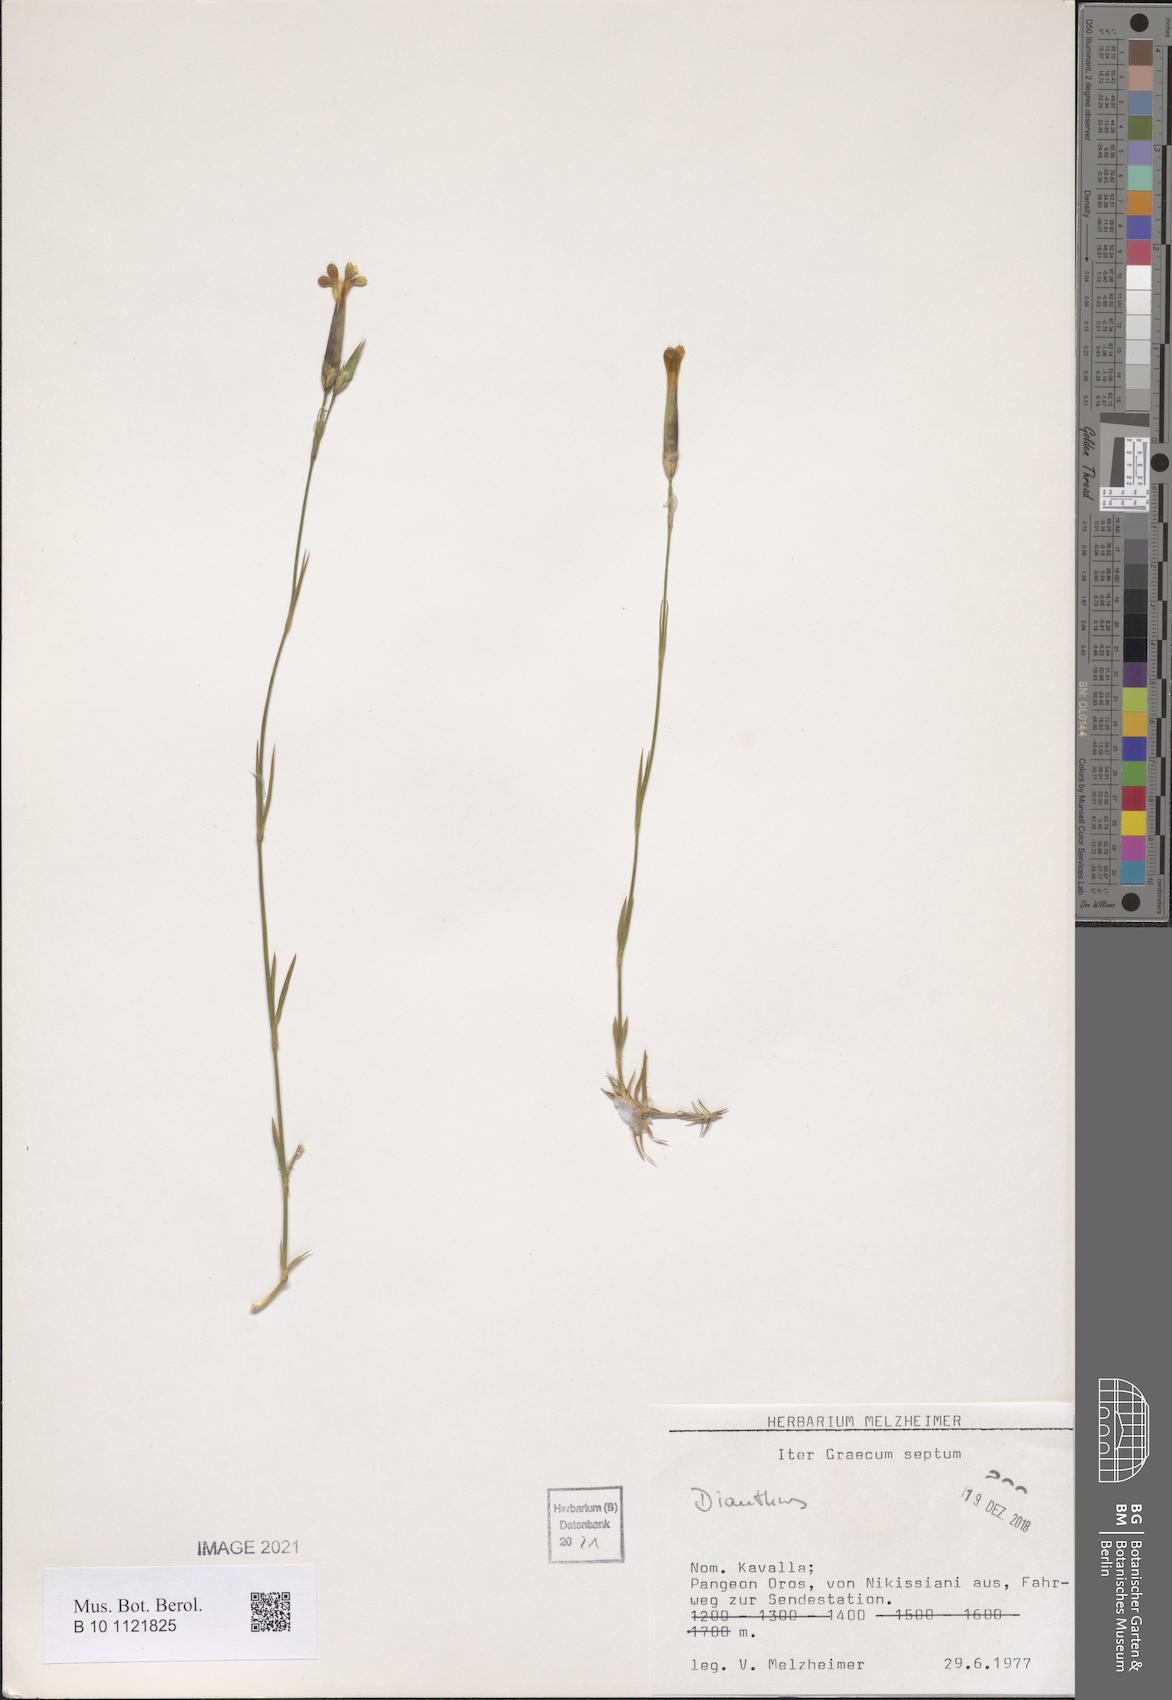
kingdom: Plantae
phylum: Tracheophyta
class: Magnoliopsida
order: Caryophyllales
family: Caryophyllaceae
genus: Dianthus
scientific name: Dianthus
